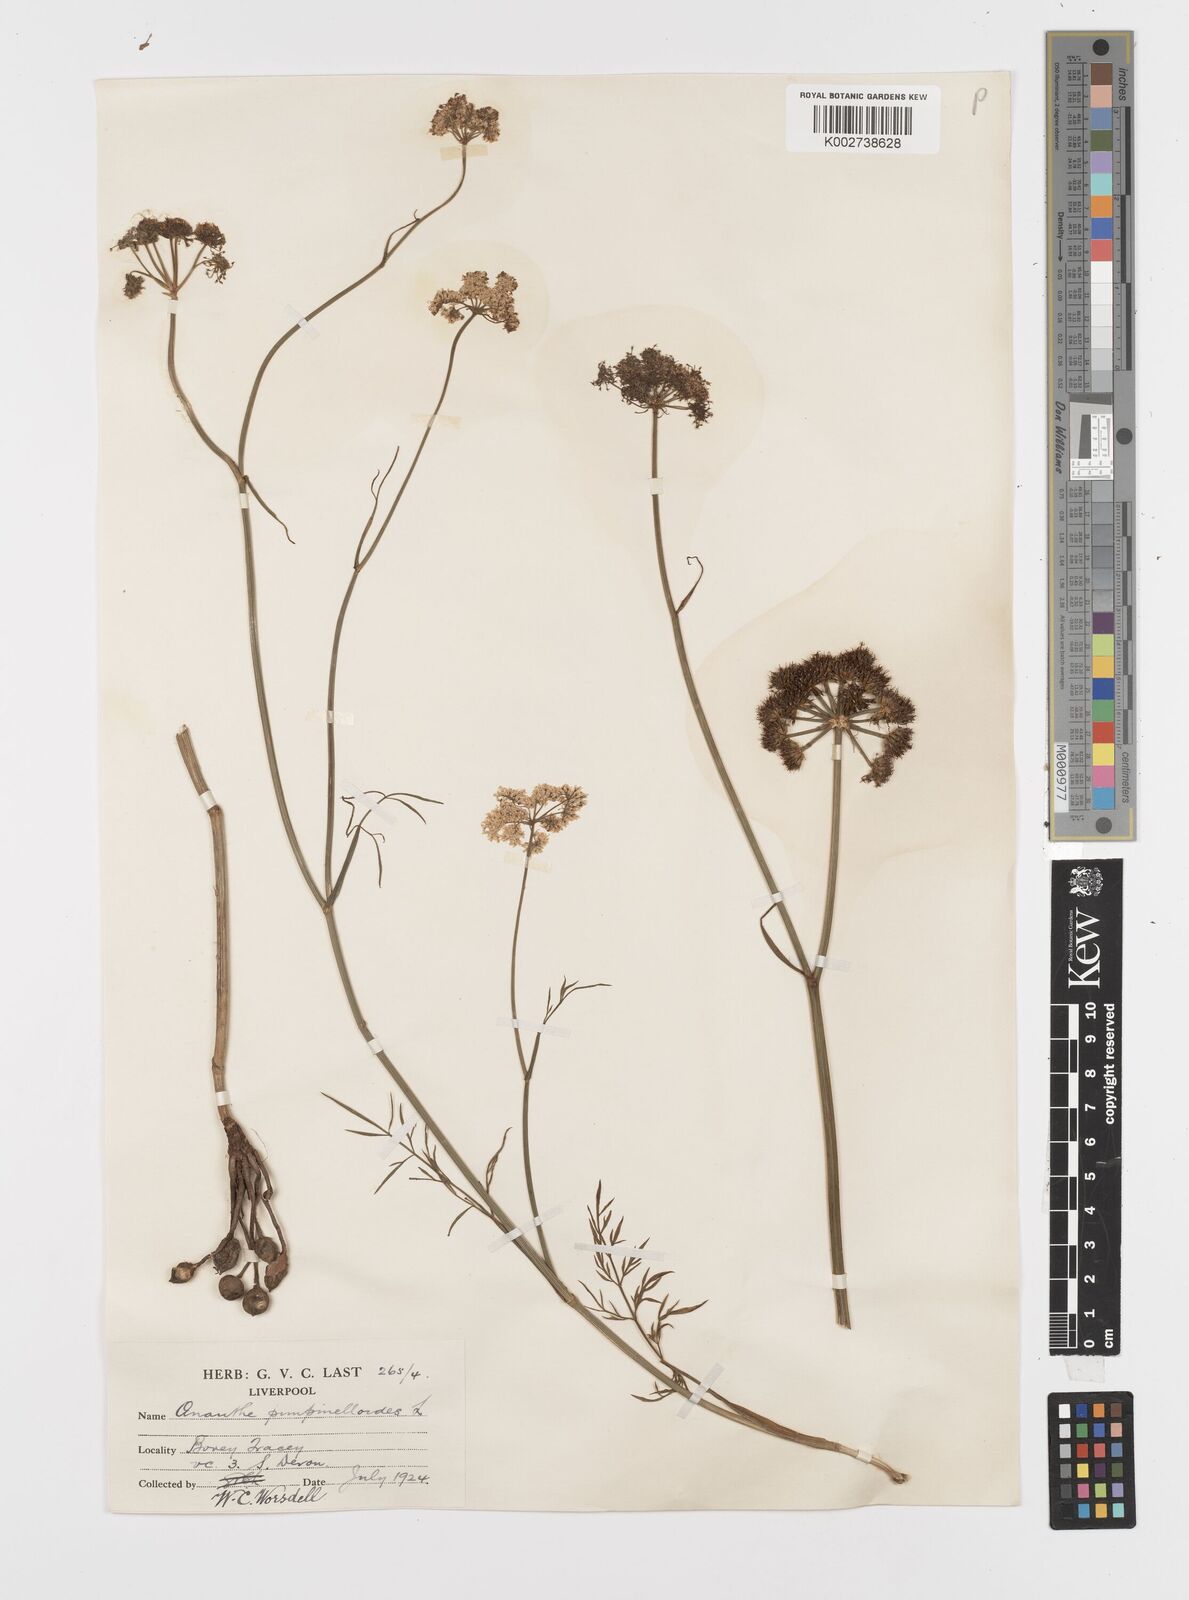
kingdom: Plantae
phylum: Tracheophyta
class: Magnoliopsida
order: Apiales
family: Apiaceae
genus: Oenanthe
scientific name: Oenanthe pimpinelloides
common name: Corky-fruited water-dropwort
